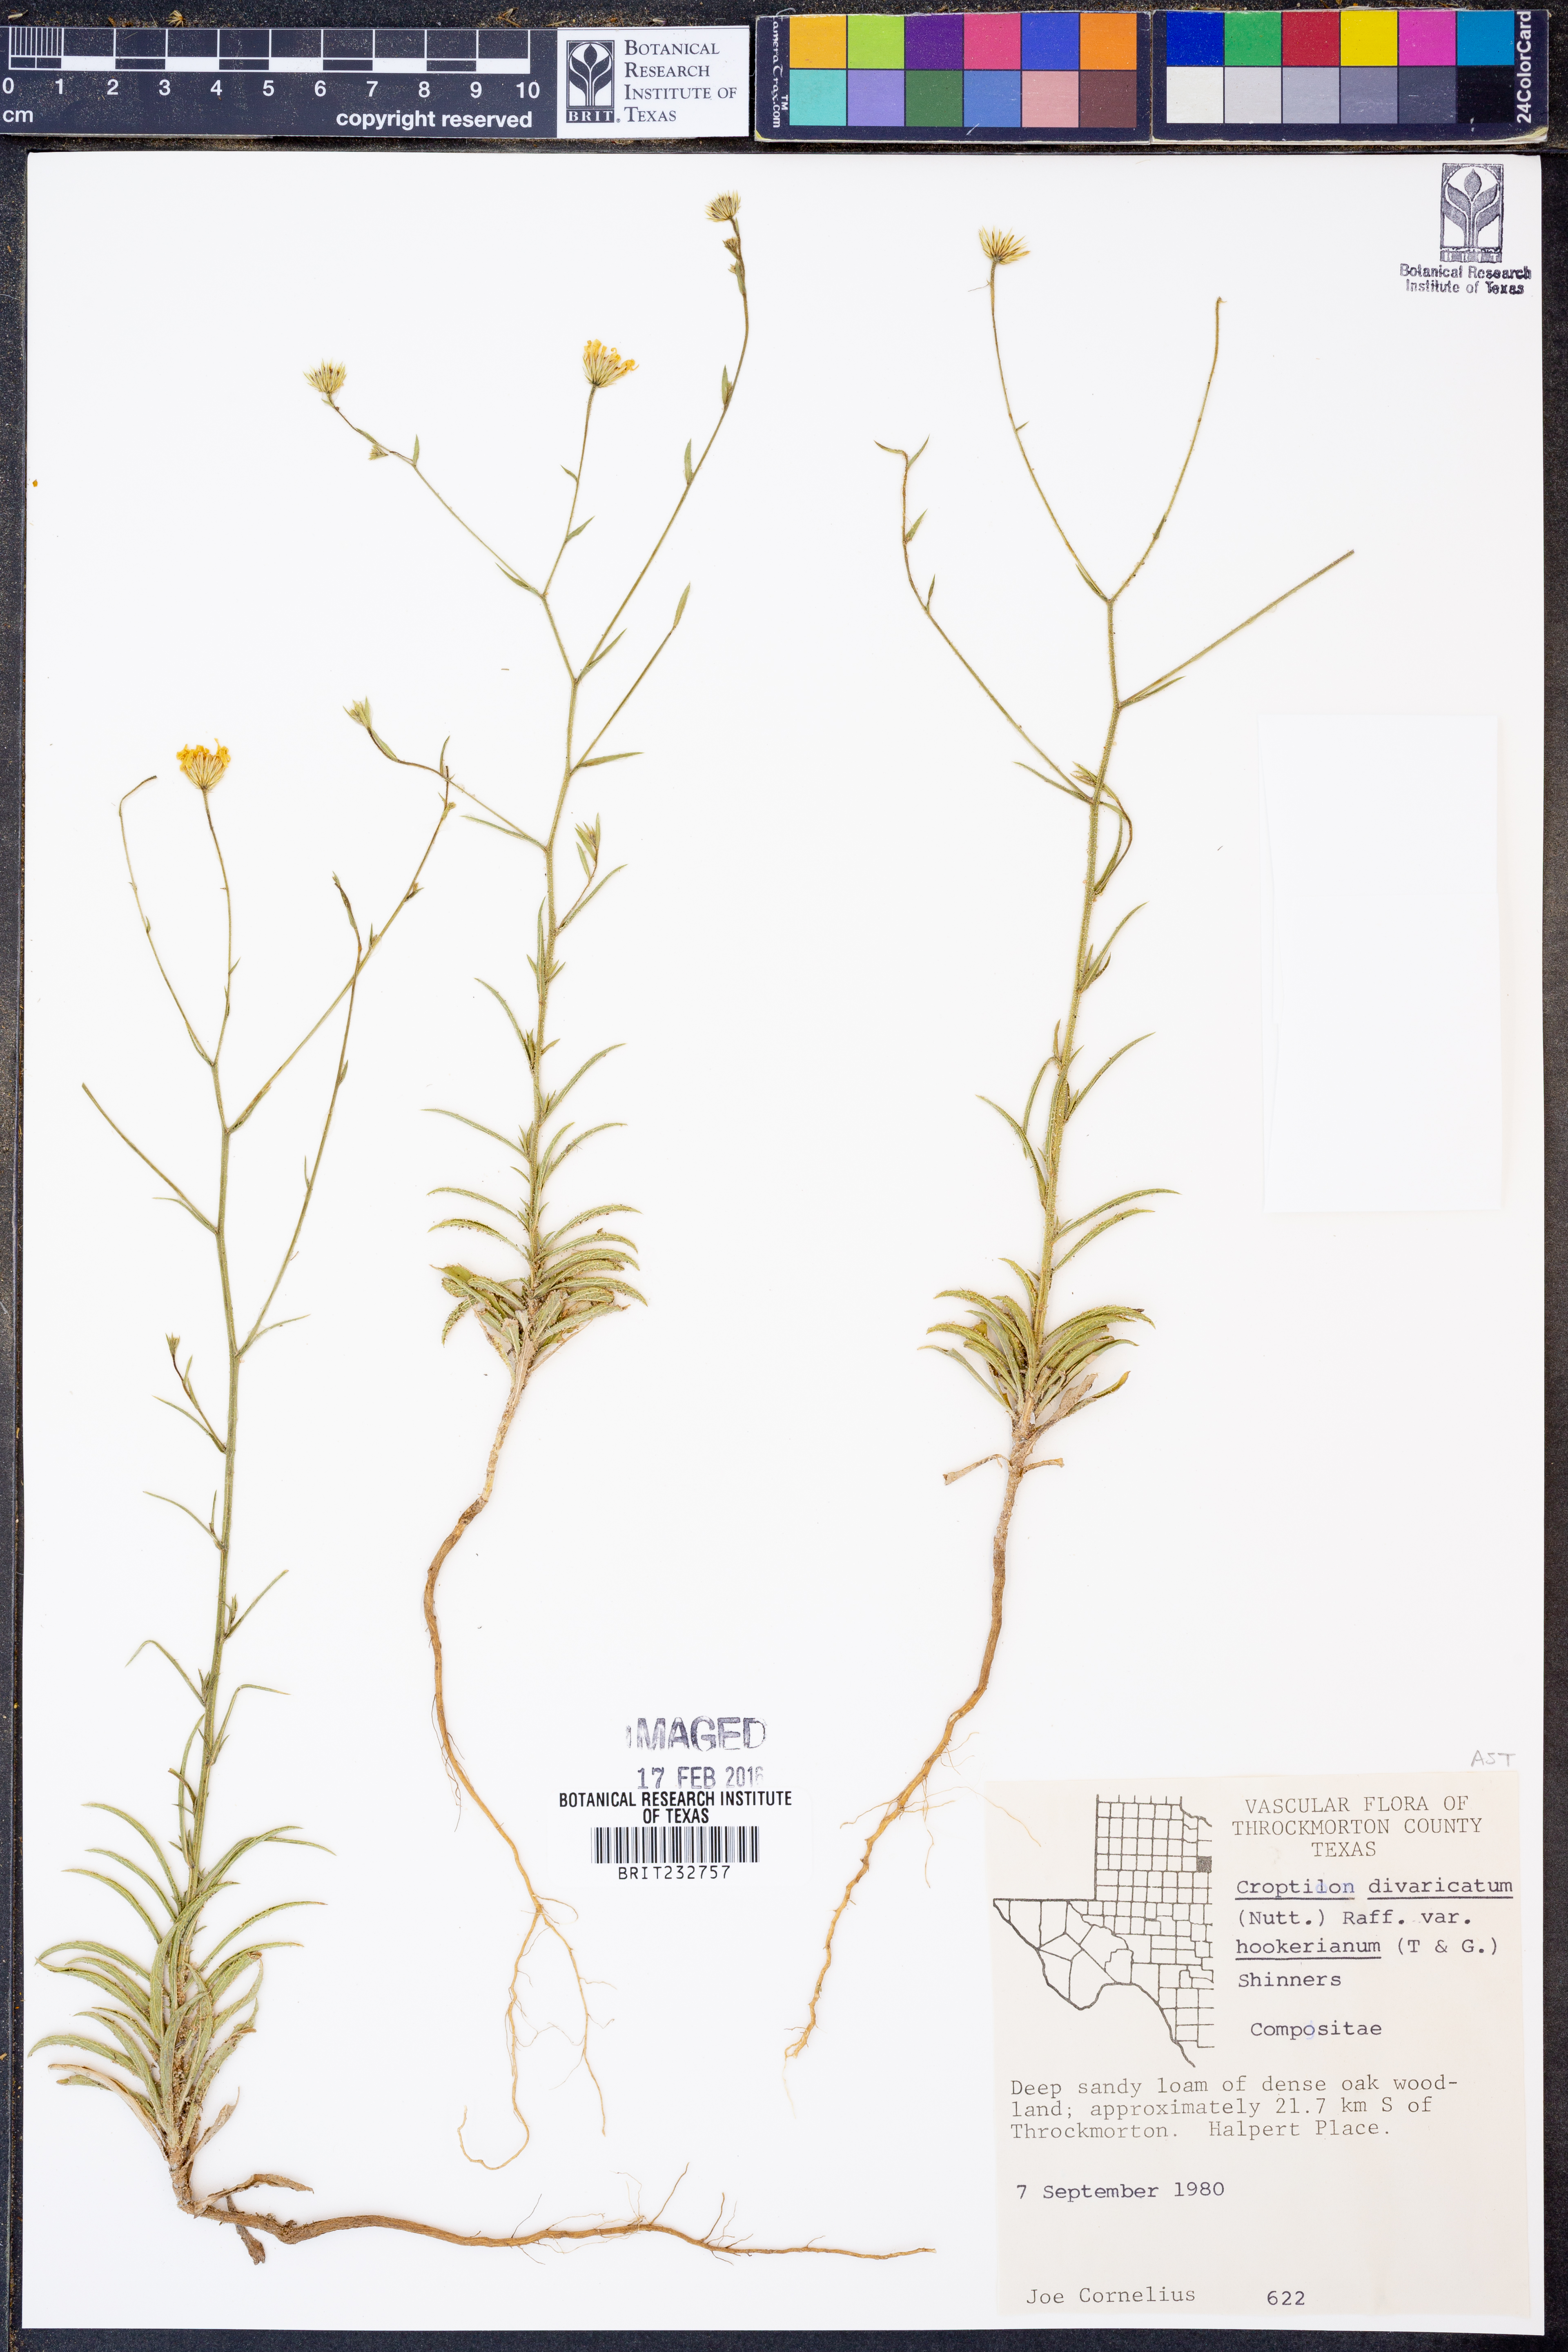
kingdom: Plantae
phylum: Tracheophyta
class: Magnoliopsida
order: Asterales
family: Asteraceae
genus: Croptilon
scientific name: Croptilon hookerianum
